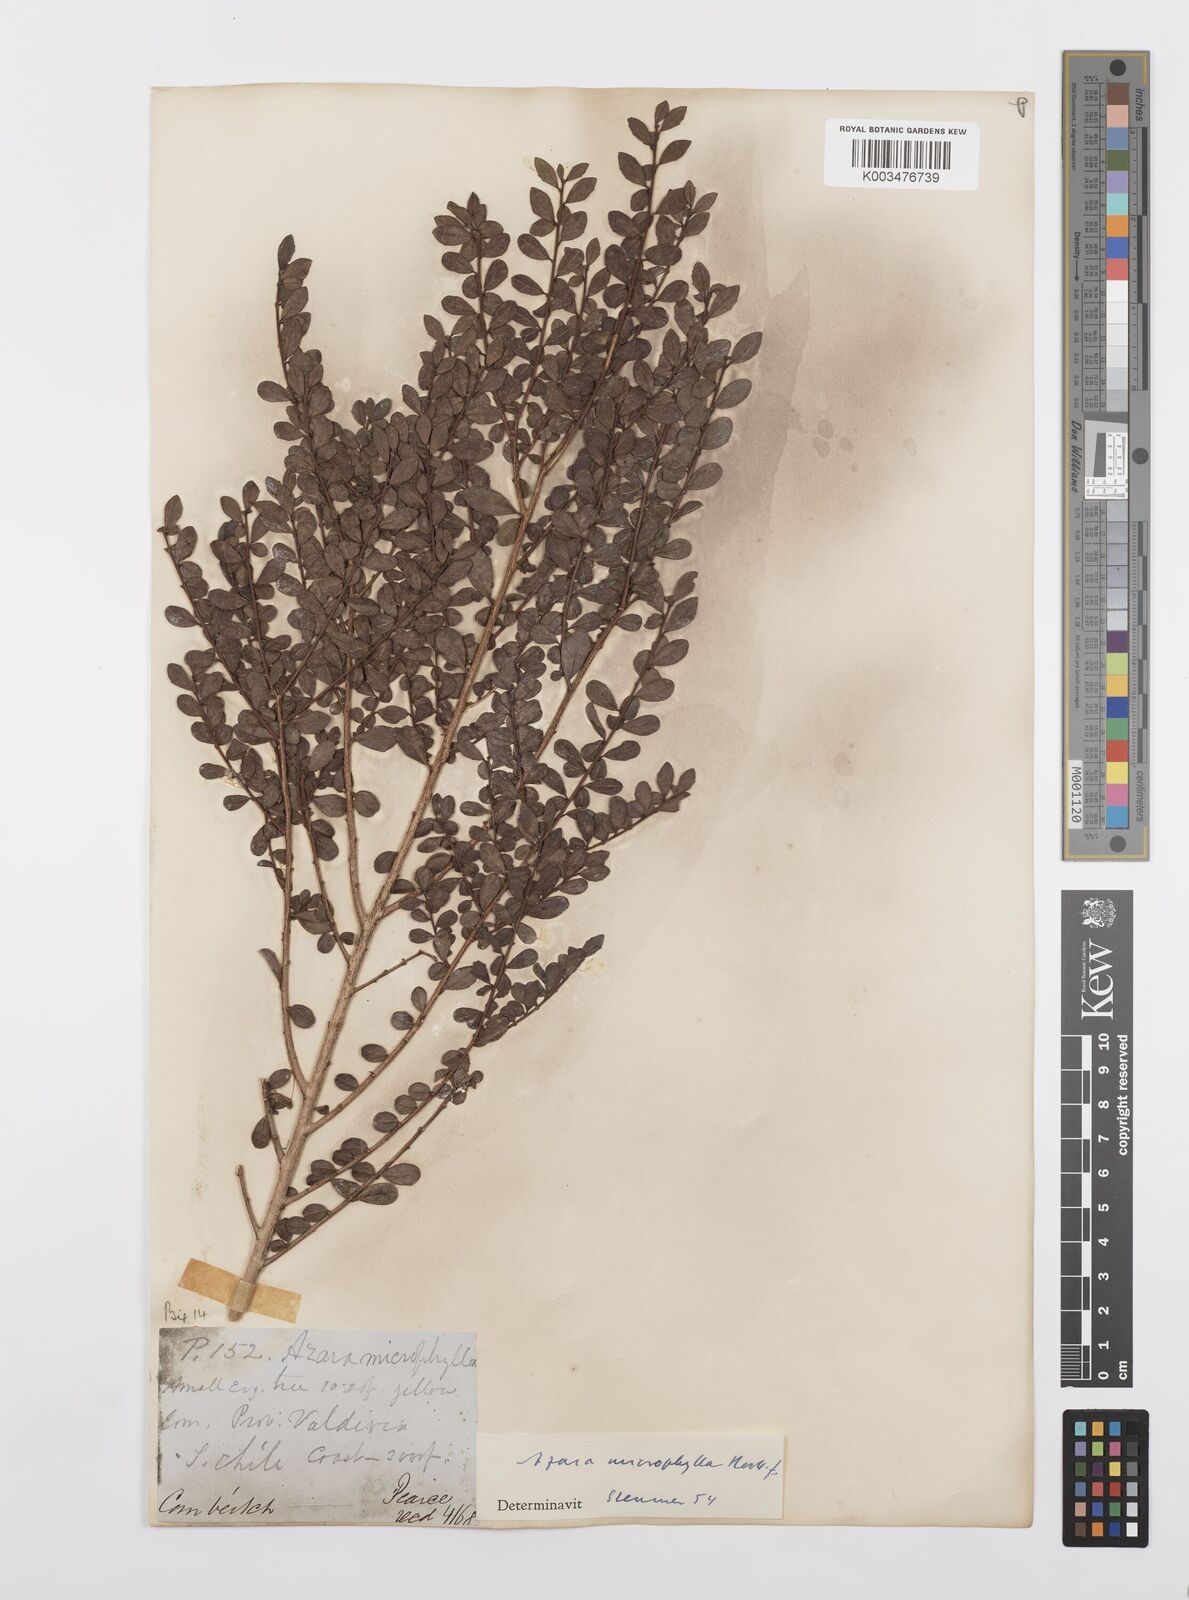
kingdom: Plantae
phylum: Tracheophyta
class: Magnoliopsida
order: Malpighiales
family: Salicaceae
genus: Azara
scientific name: Azara microphylla
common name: Box-leaf azara
